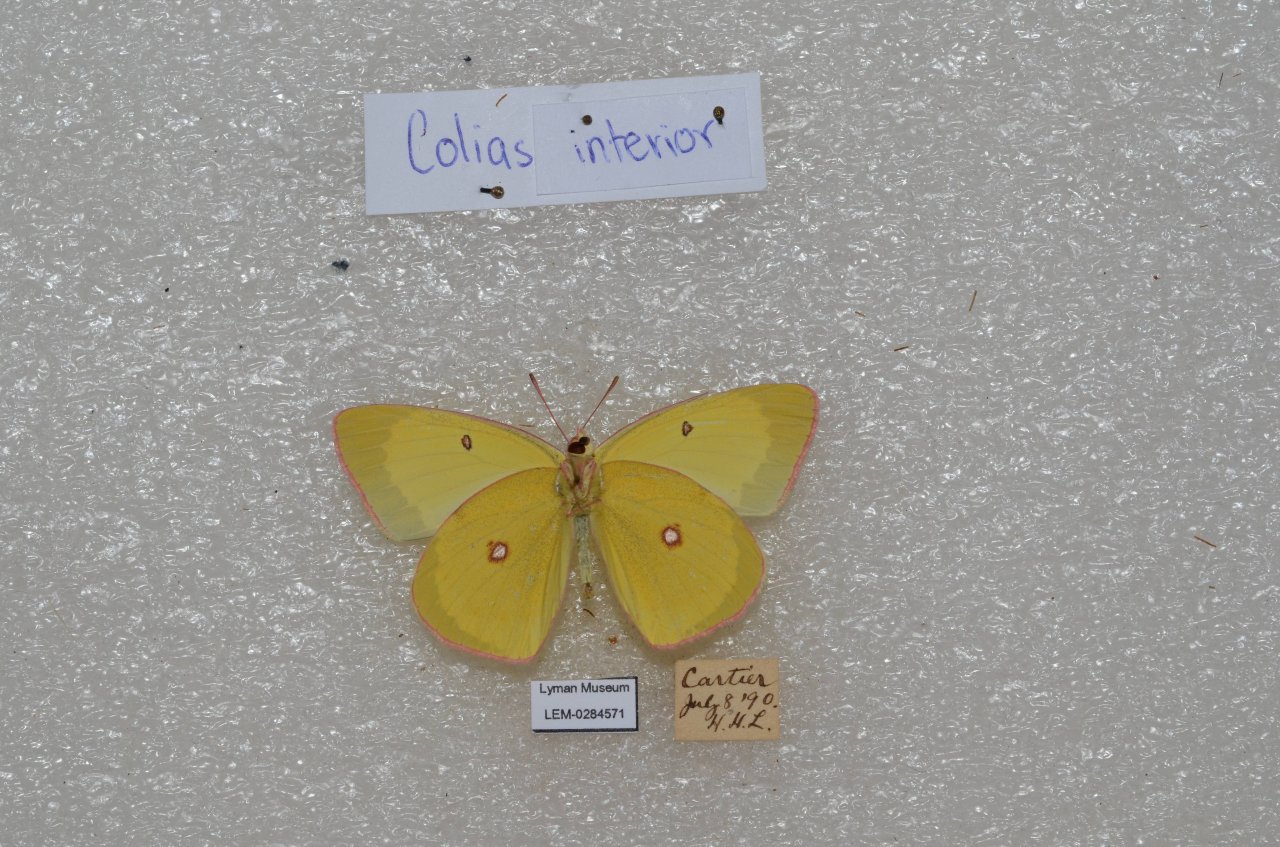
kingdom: Animalia
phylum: Arthropoda
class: Insecta
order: Lepidoptera
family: Pieridae
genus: Colias
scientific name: Colias interior
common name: Pink-edged Sulphur
